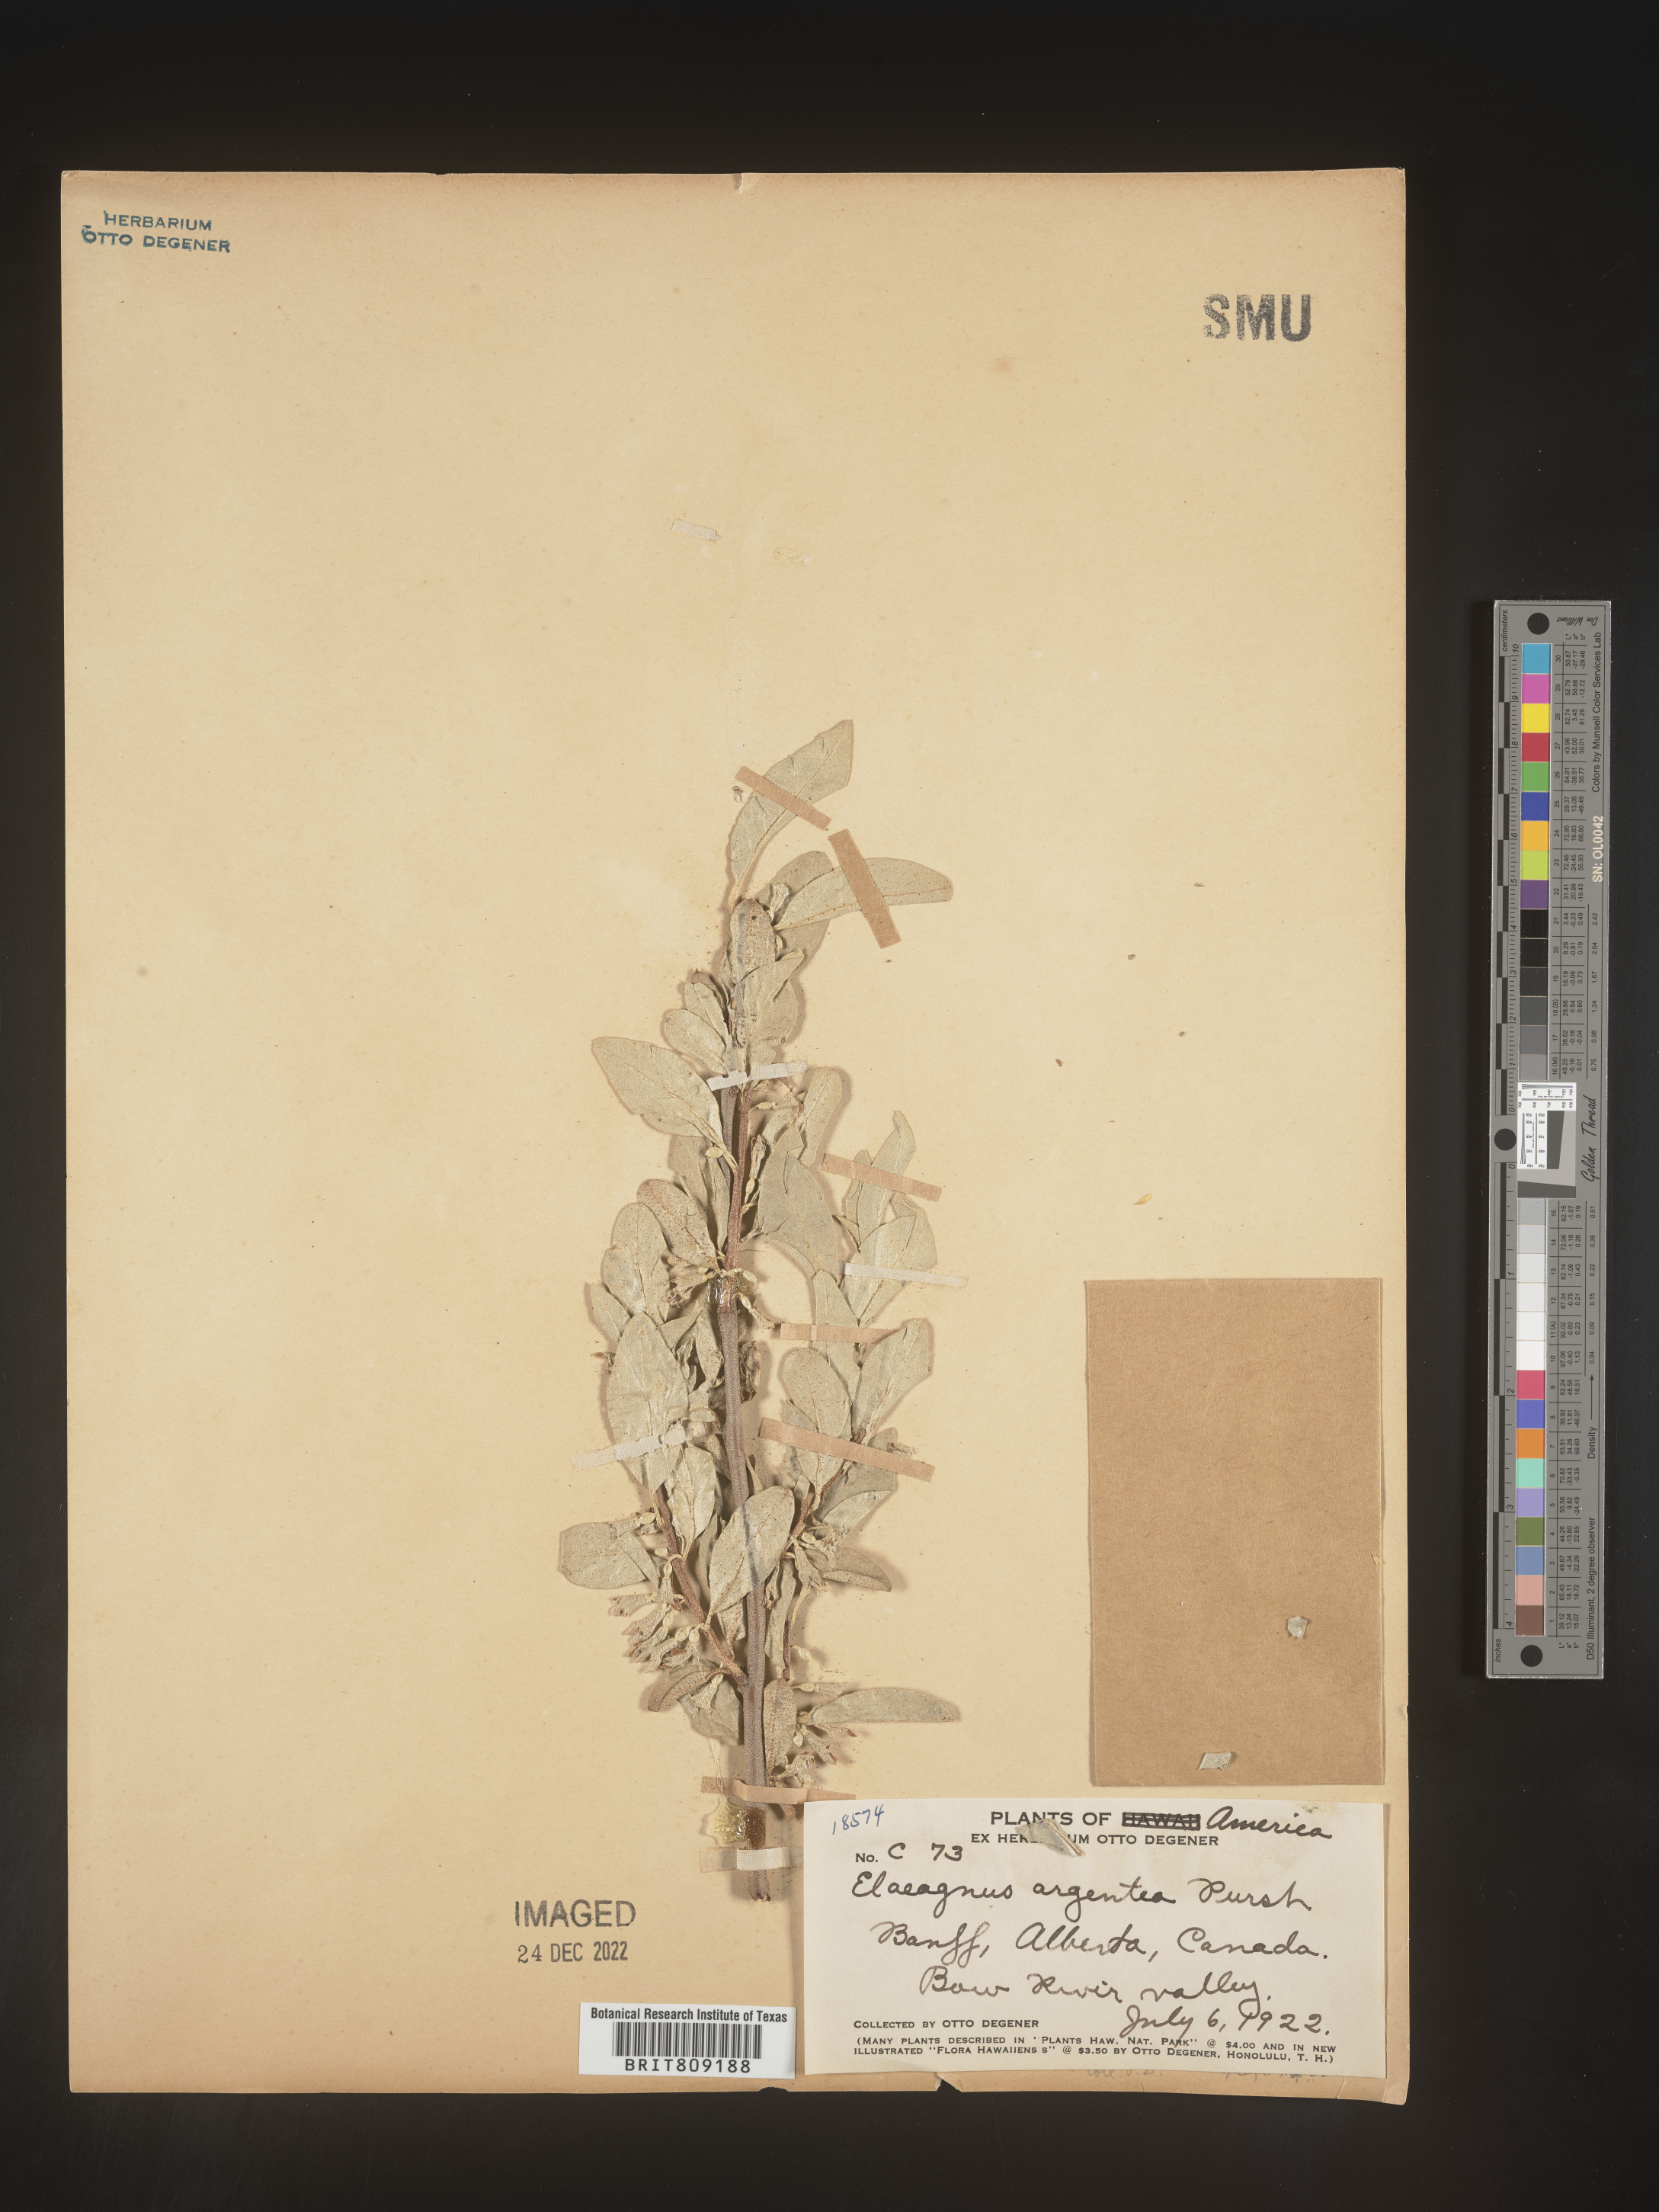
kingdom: Plantae
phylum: Tracheophyta
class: Magnoliopsida
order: Rosales
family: Elaeagnaceae
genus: Elaeagnus
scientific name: Elaeagnus
